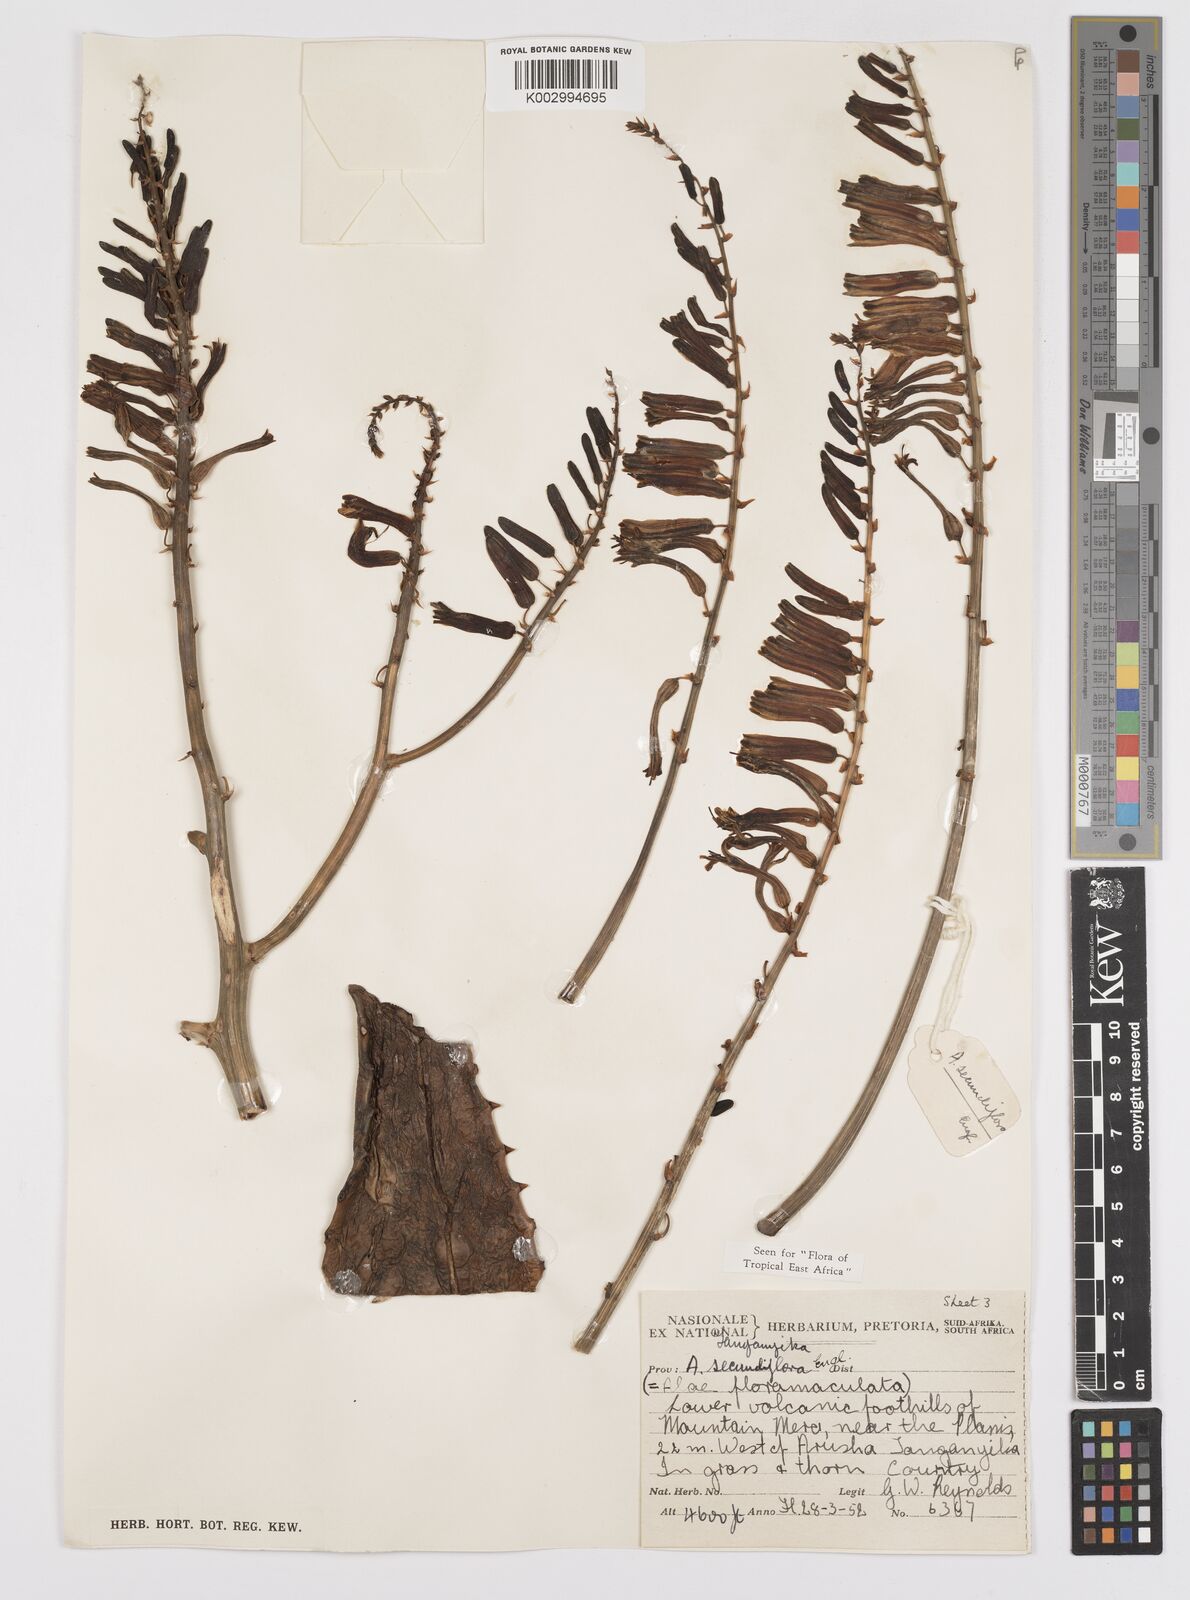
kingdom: Plantae
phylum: Tracheophyta
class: Liliopsida
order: Asparagales
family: Asphodelaceae
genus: Aloe
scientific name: Aloe secundiflora
